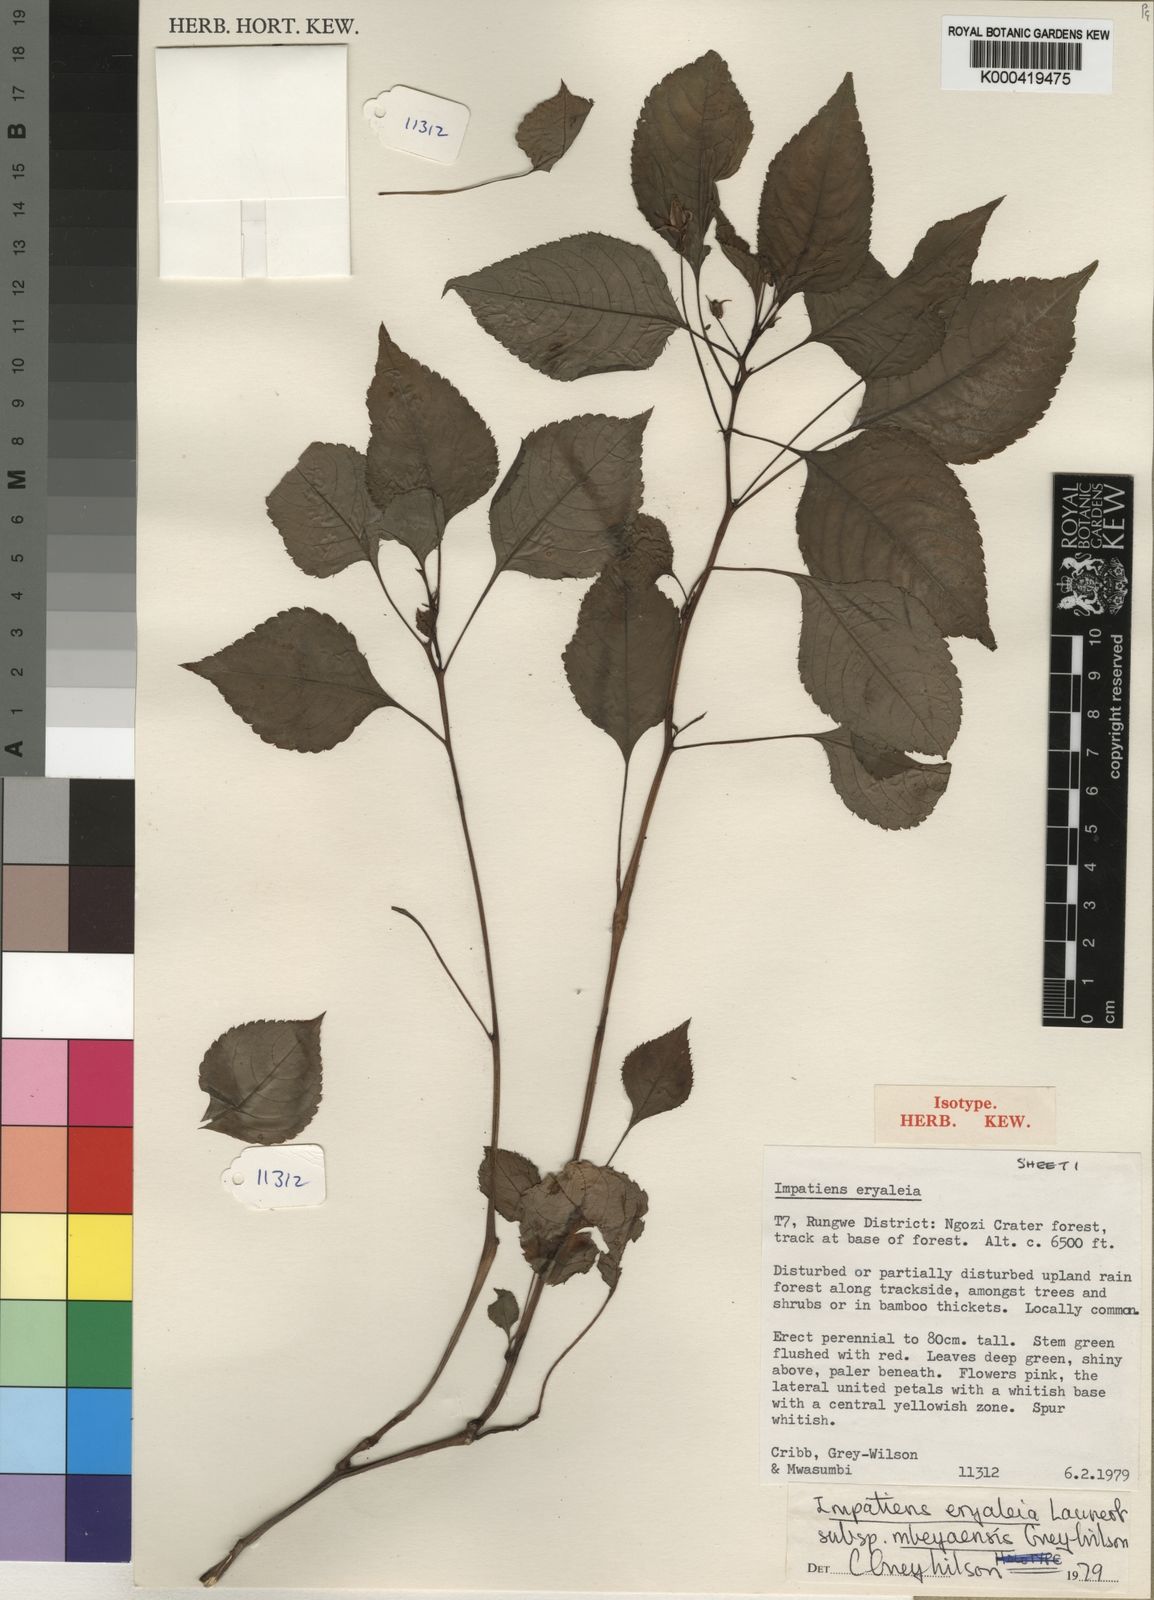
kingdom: Plantae
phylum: Tracheophyta
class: Magnoliopsida
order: Ericales
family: Balsaminaceae
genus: Impatiens
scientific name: Impatiens eryaleia
